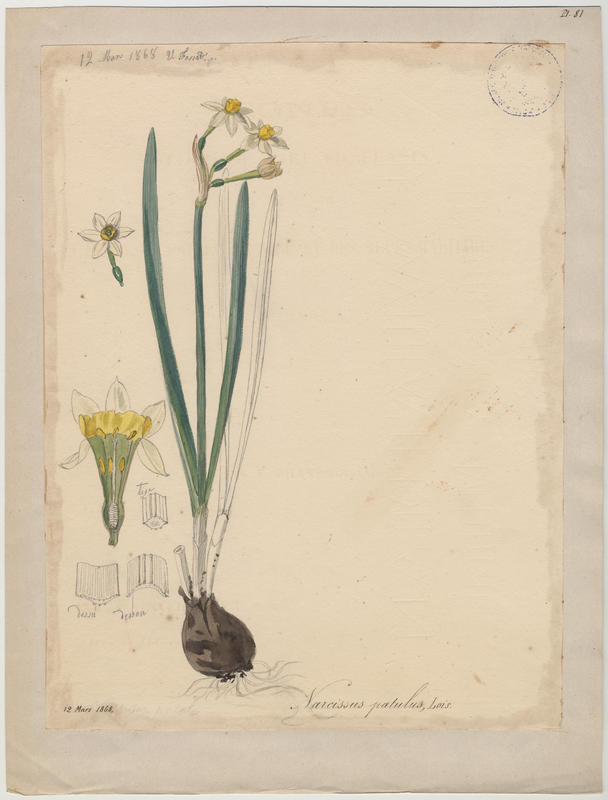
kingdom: Plantae
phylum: Tracheophyta
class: Liliopsida
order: Asparagales
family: Amaryllidaceae
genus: Narcissus
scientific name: Narcissus tazetta
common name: Bunch-flowered daffodil
